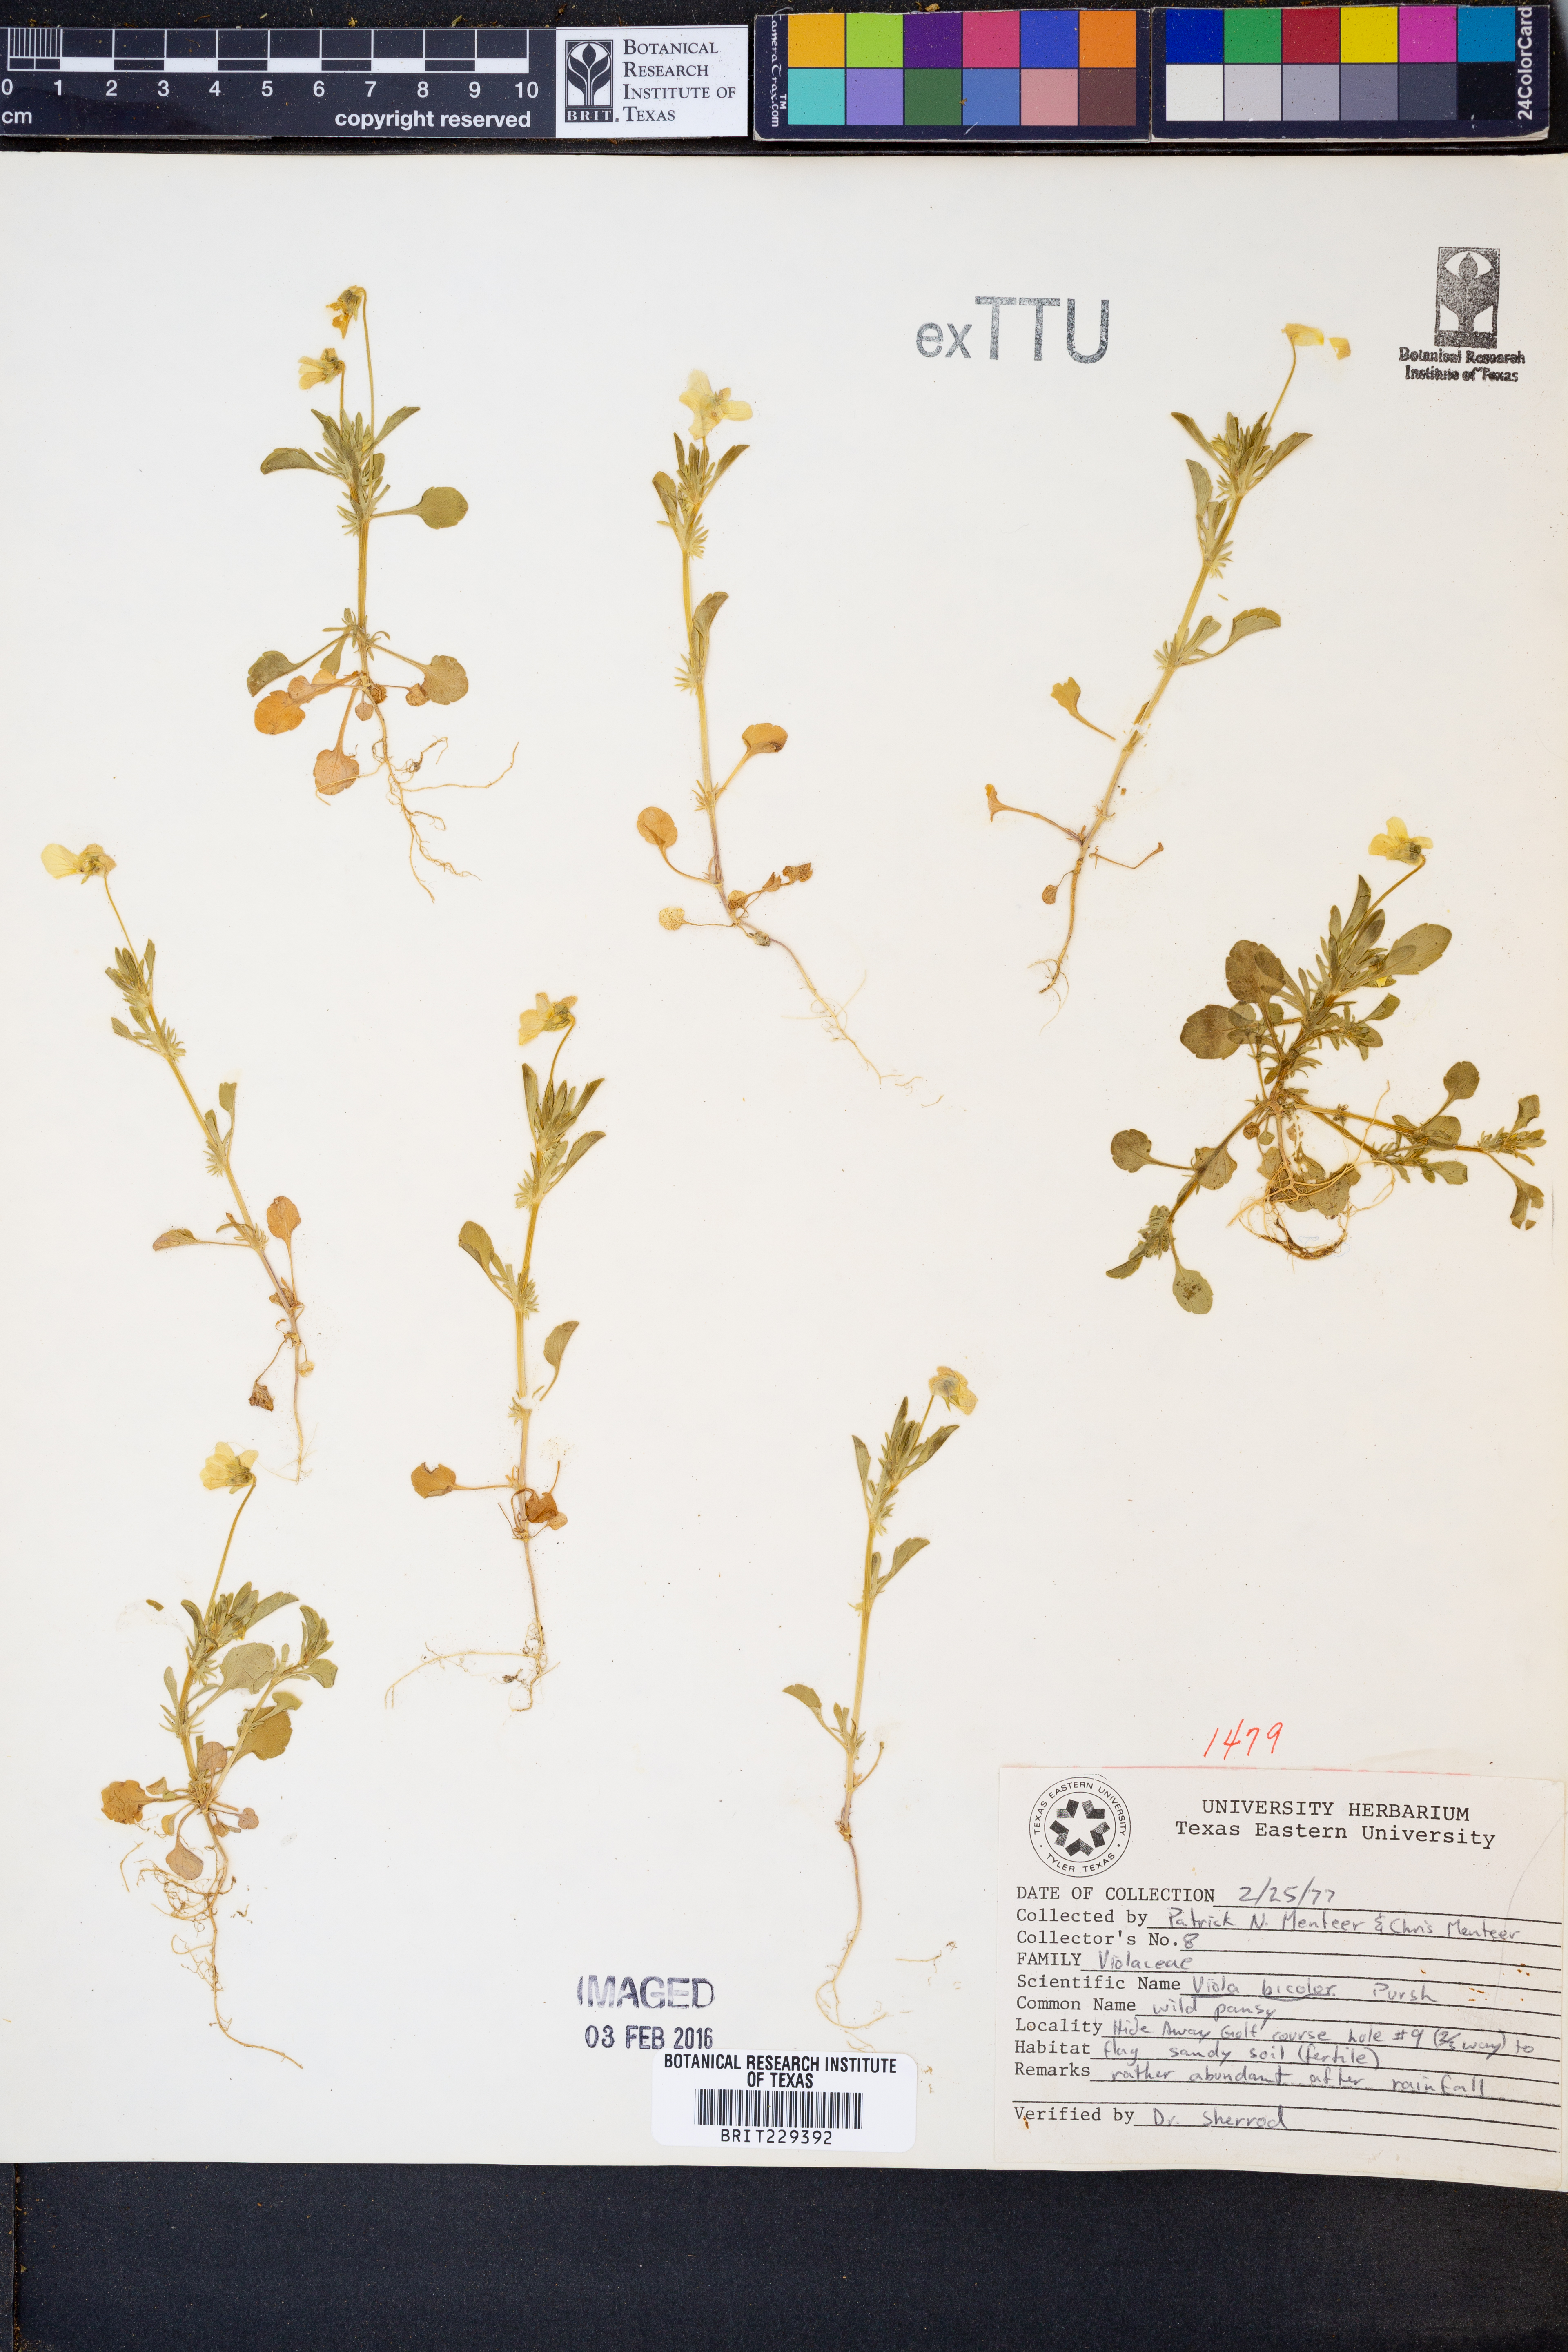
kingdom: Plantae
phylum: Tracheophyta
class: Magnoliopsida
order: Malpighiales
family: Violaceae
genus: Viola
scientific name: Viola rafinesquei
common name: American field pansy
